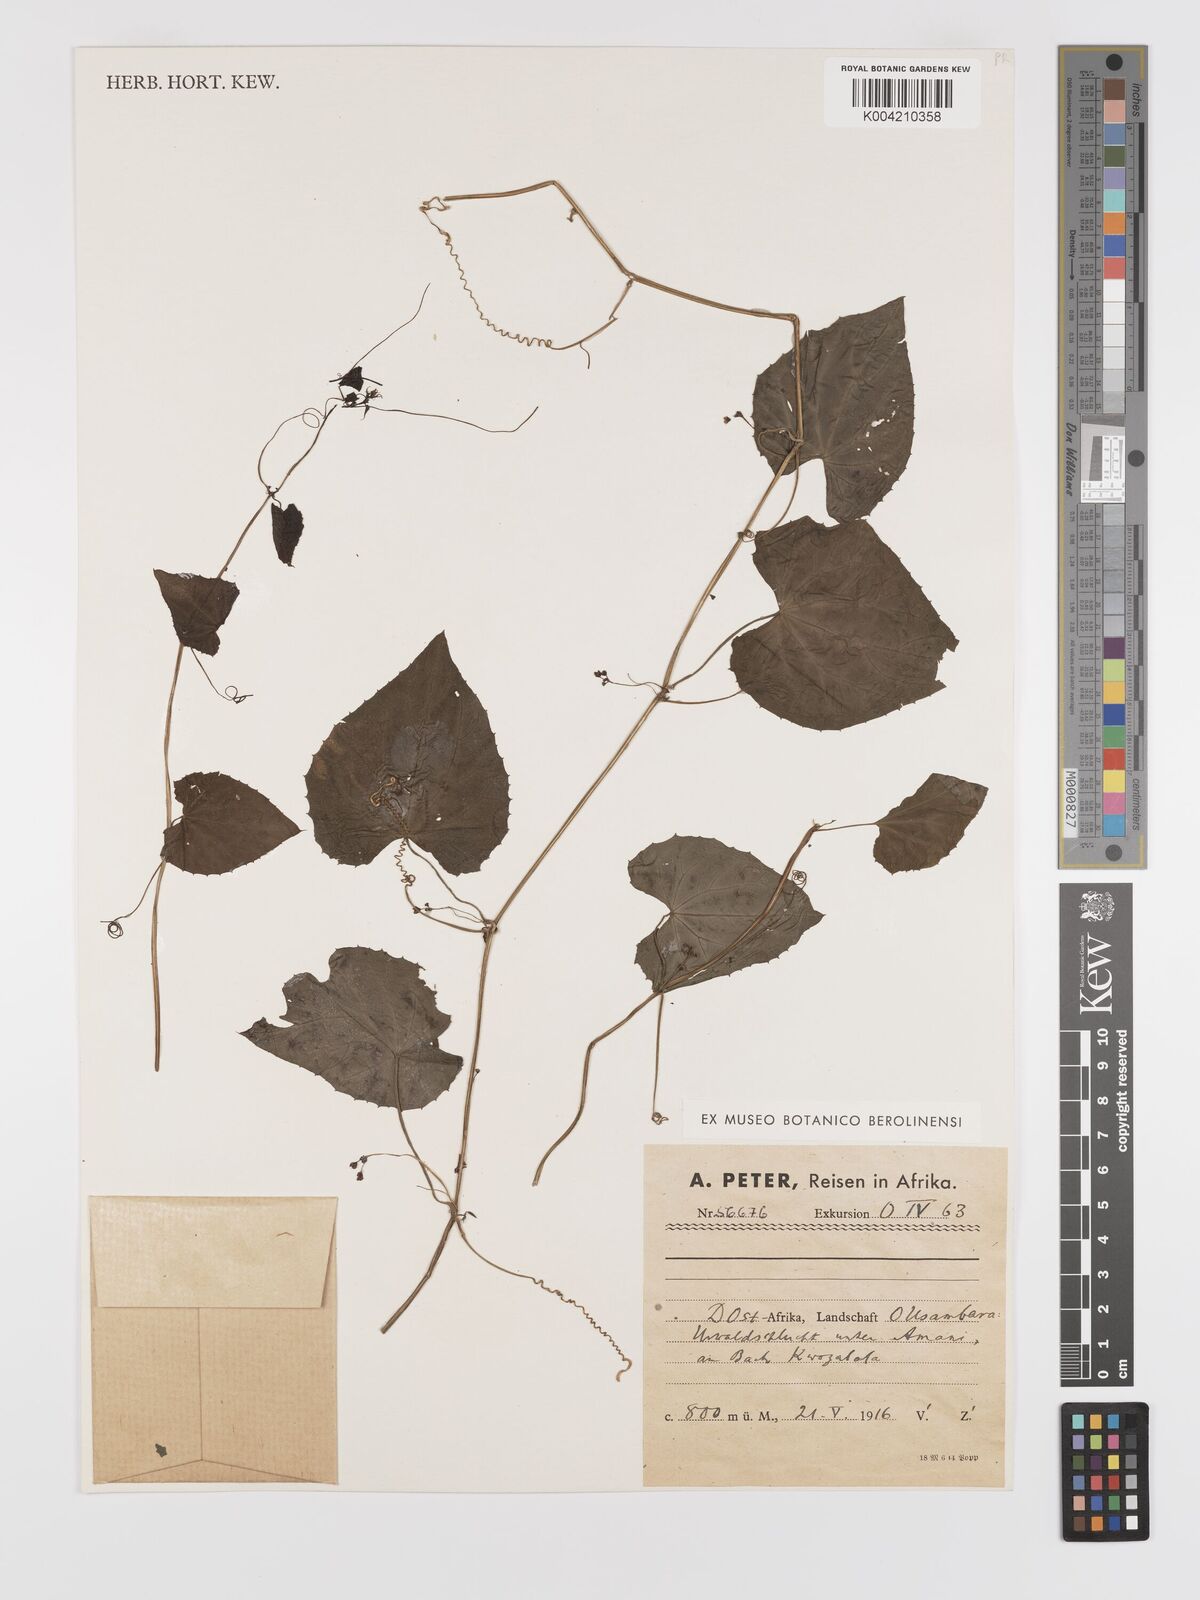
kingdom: Plantae
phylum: Tracheophyta
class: Magnoliopsida
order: Cucurbitales
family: Cucurbitaceae
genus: Zehneria
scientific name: Zehneria emirnensis
